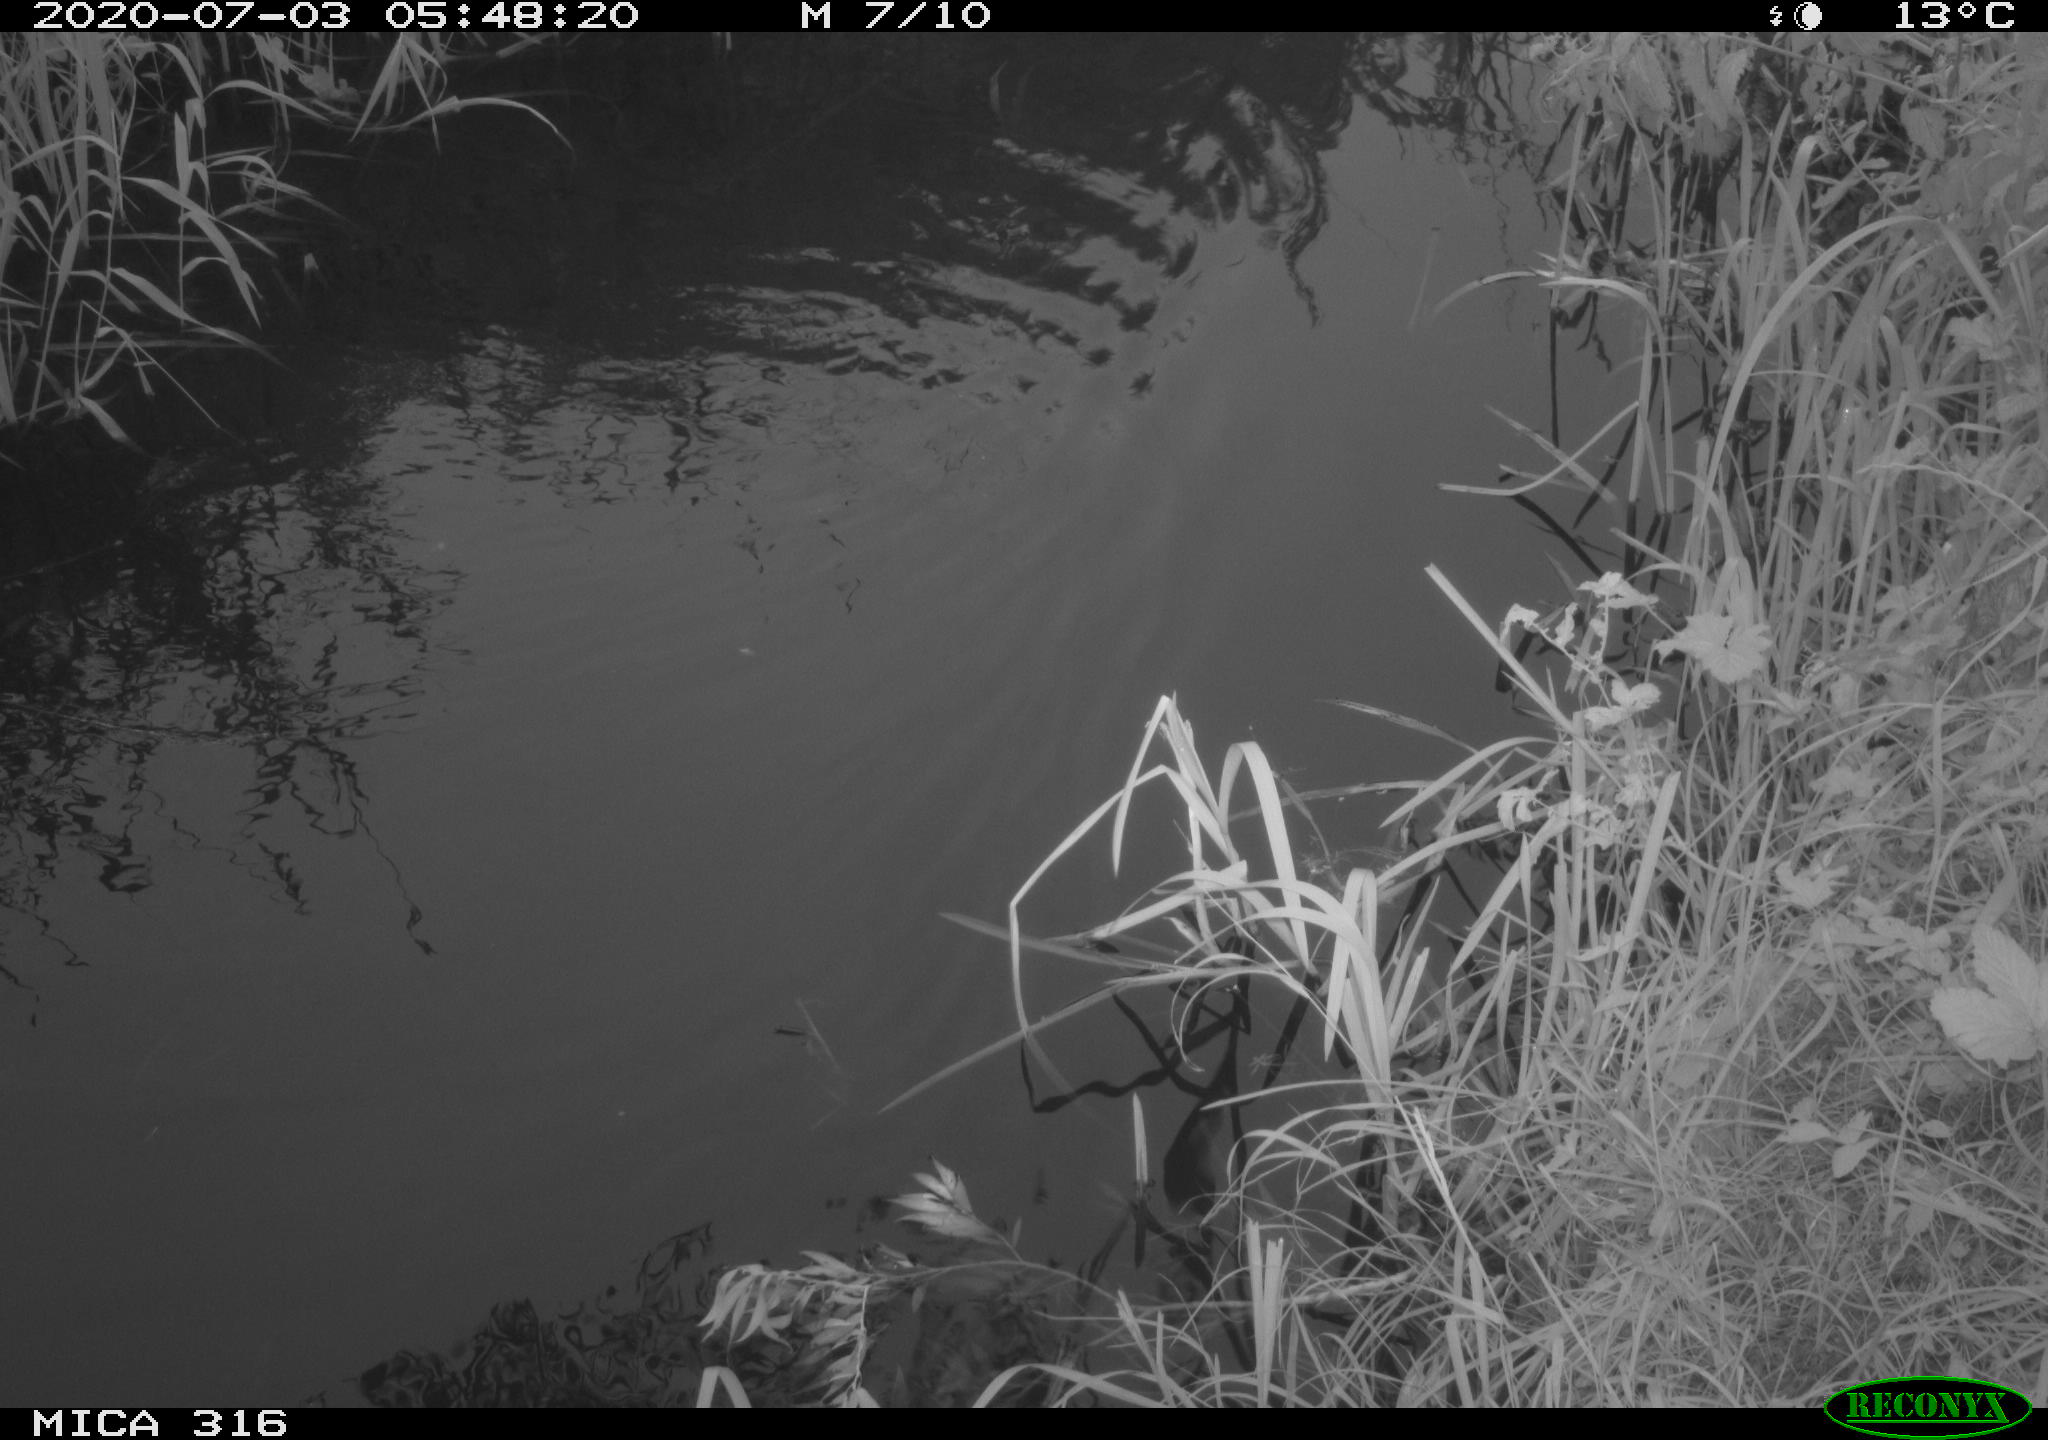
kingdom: Animalia
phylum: Chordata
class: Aves
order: Anseriformes
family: Anatidae
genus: Anas
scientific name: Anas platyrhynchos
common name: Mallard
